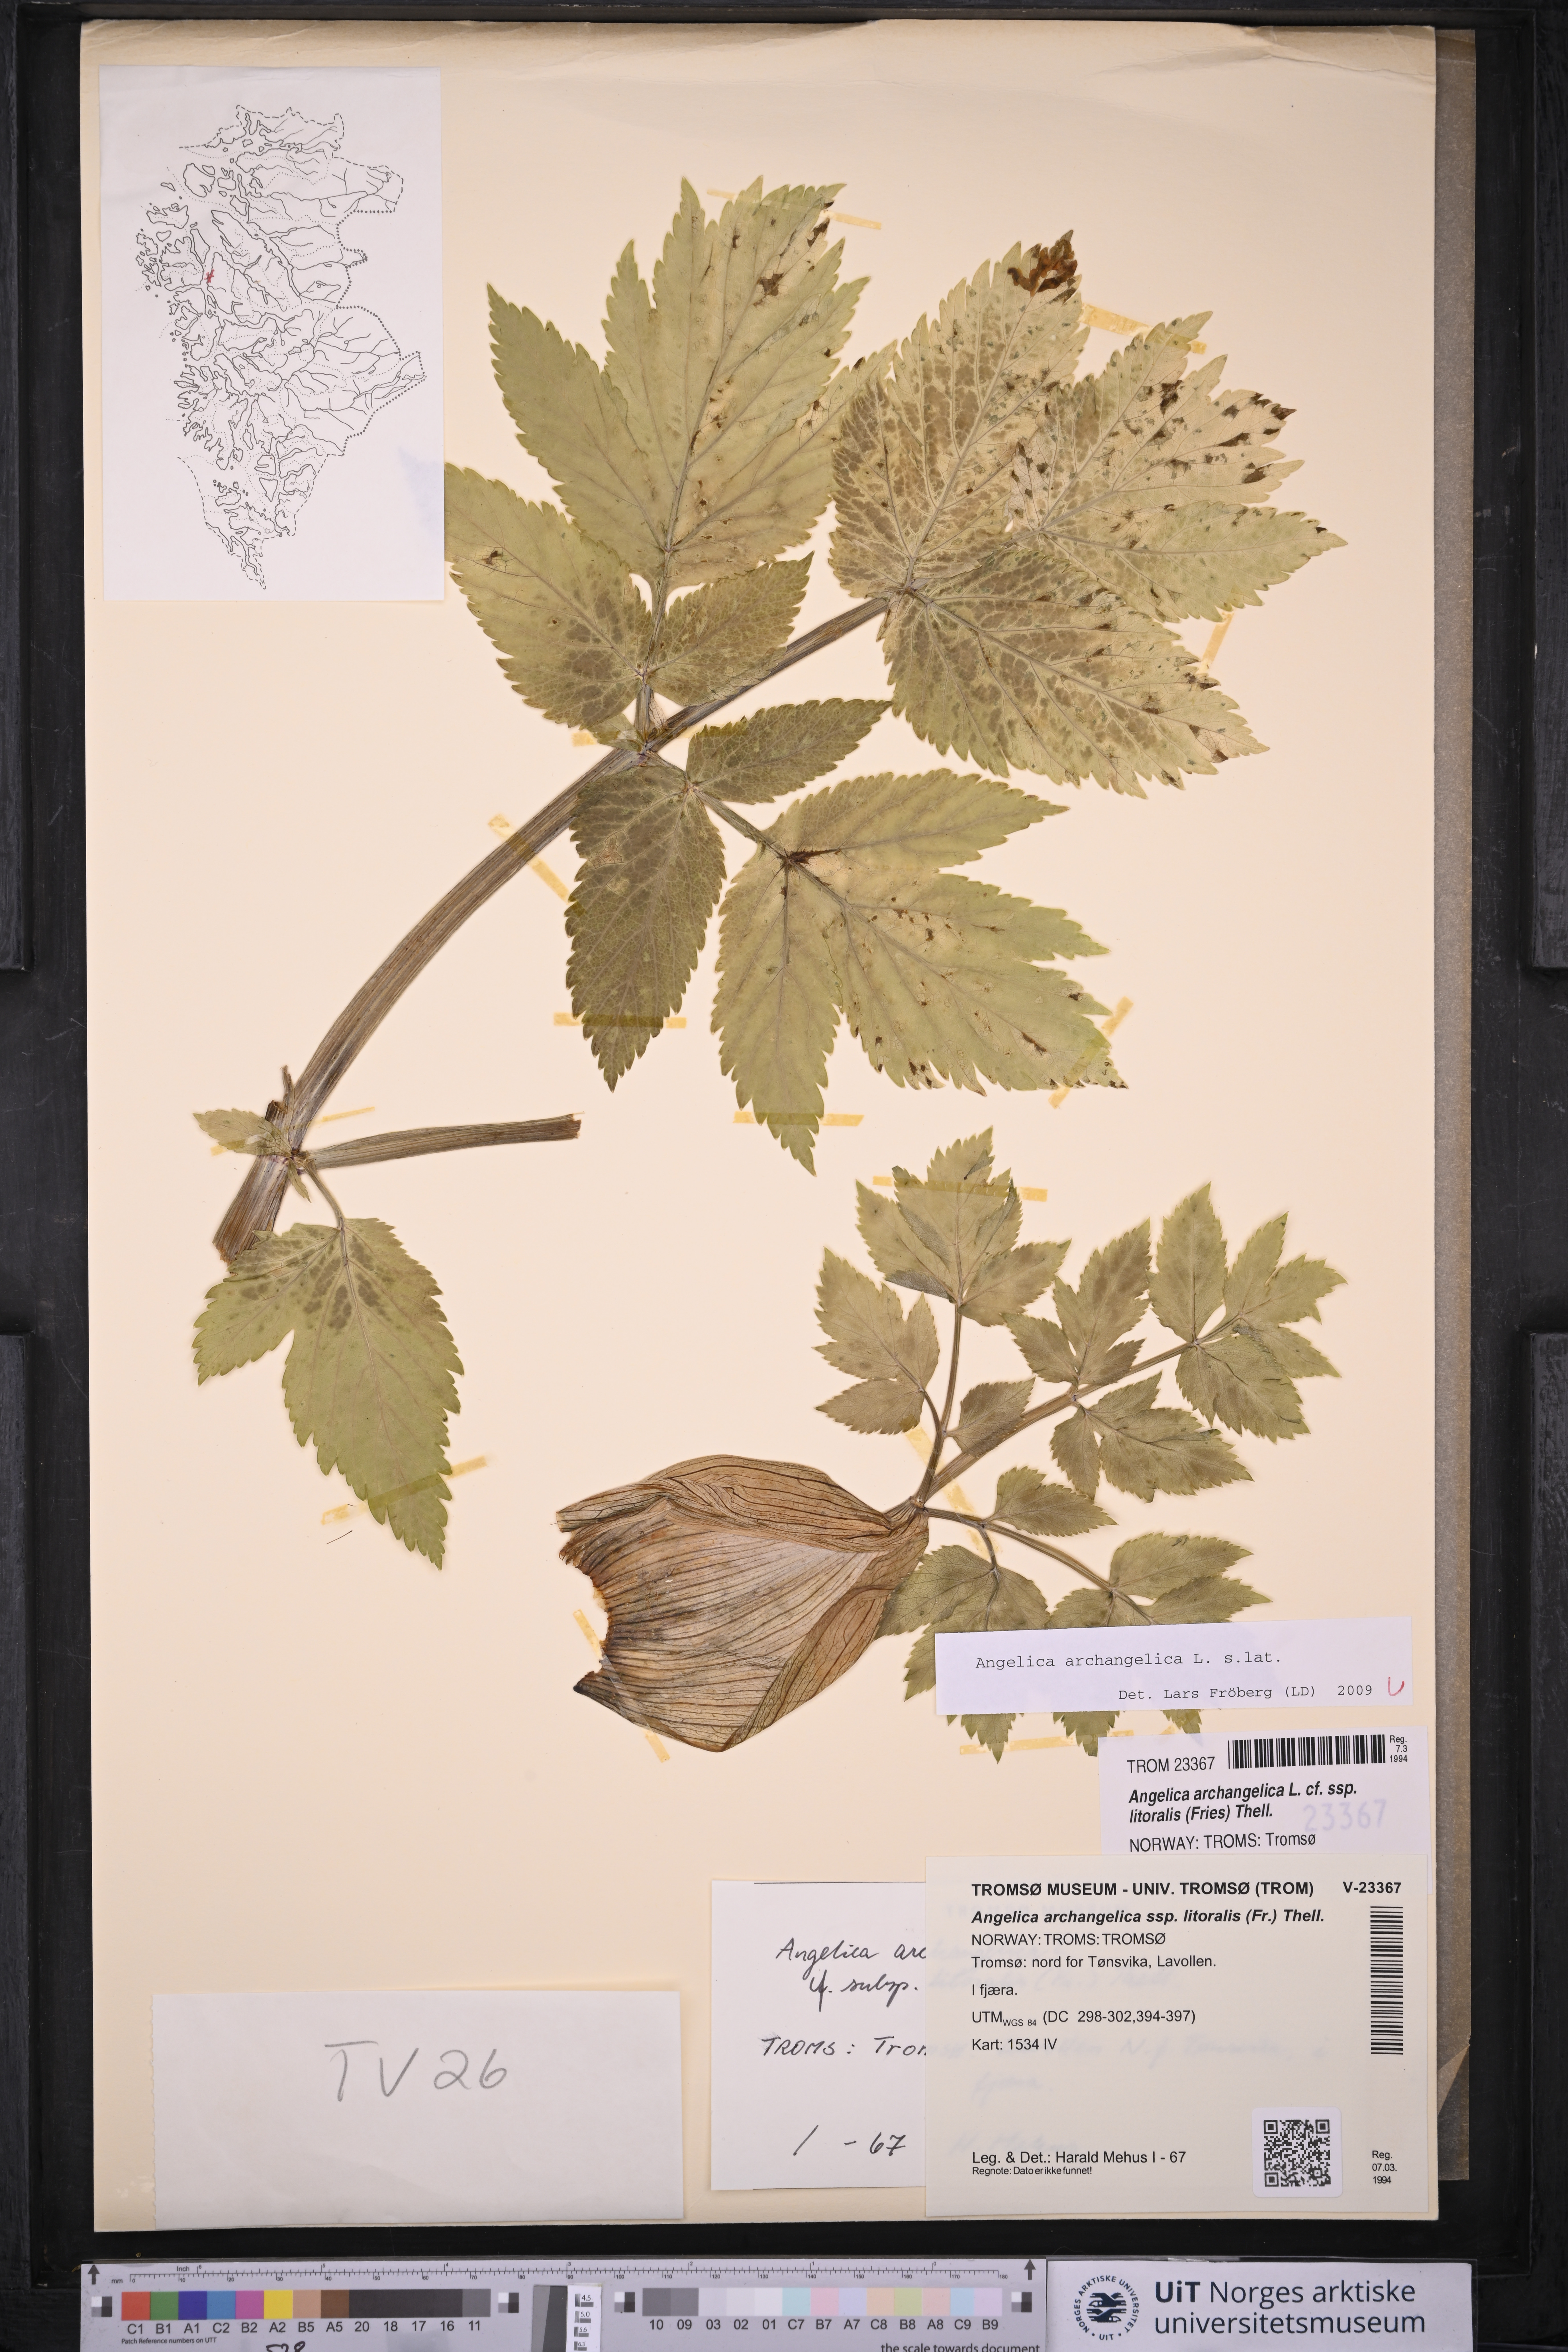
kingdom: Plantae
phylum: Tracheophyta
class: Magnoliopsida
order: Apiales
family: Apiaceae
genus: Angelica
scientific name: Angelica archangelica
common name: Garden angelica
